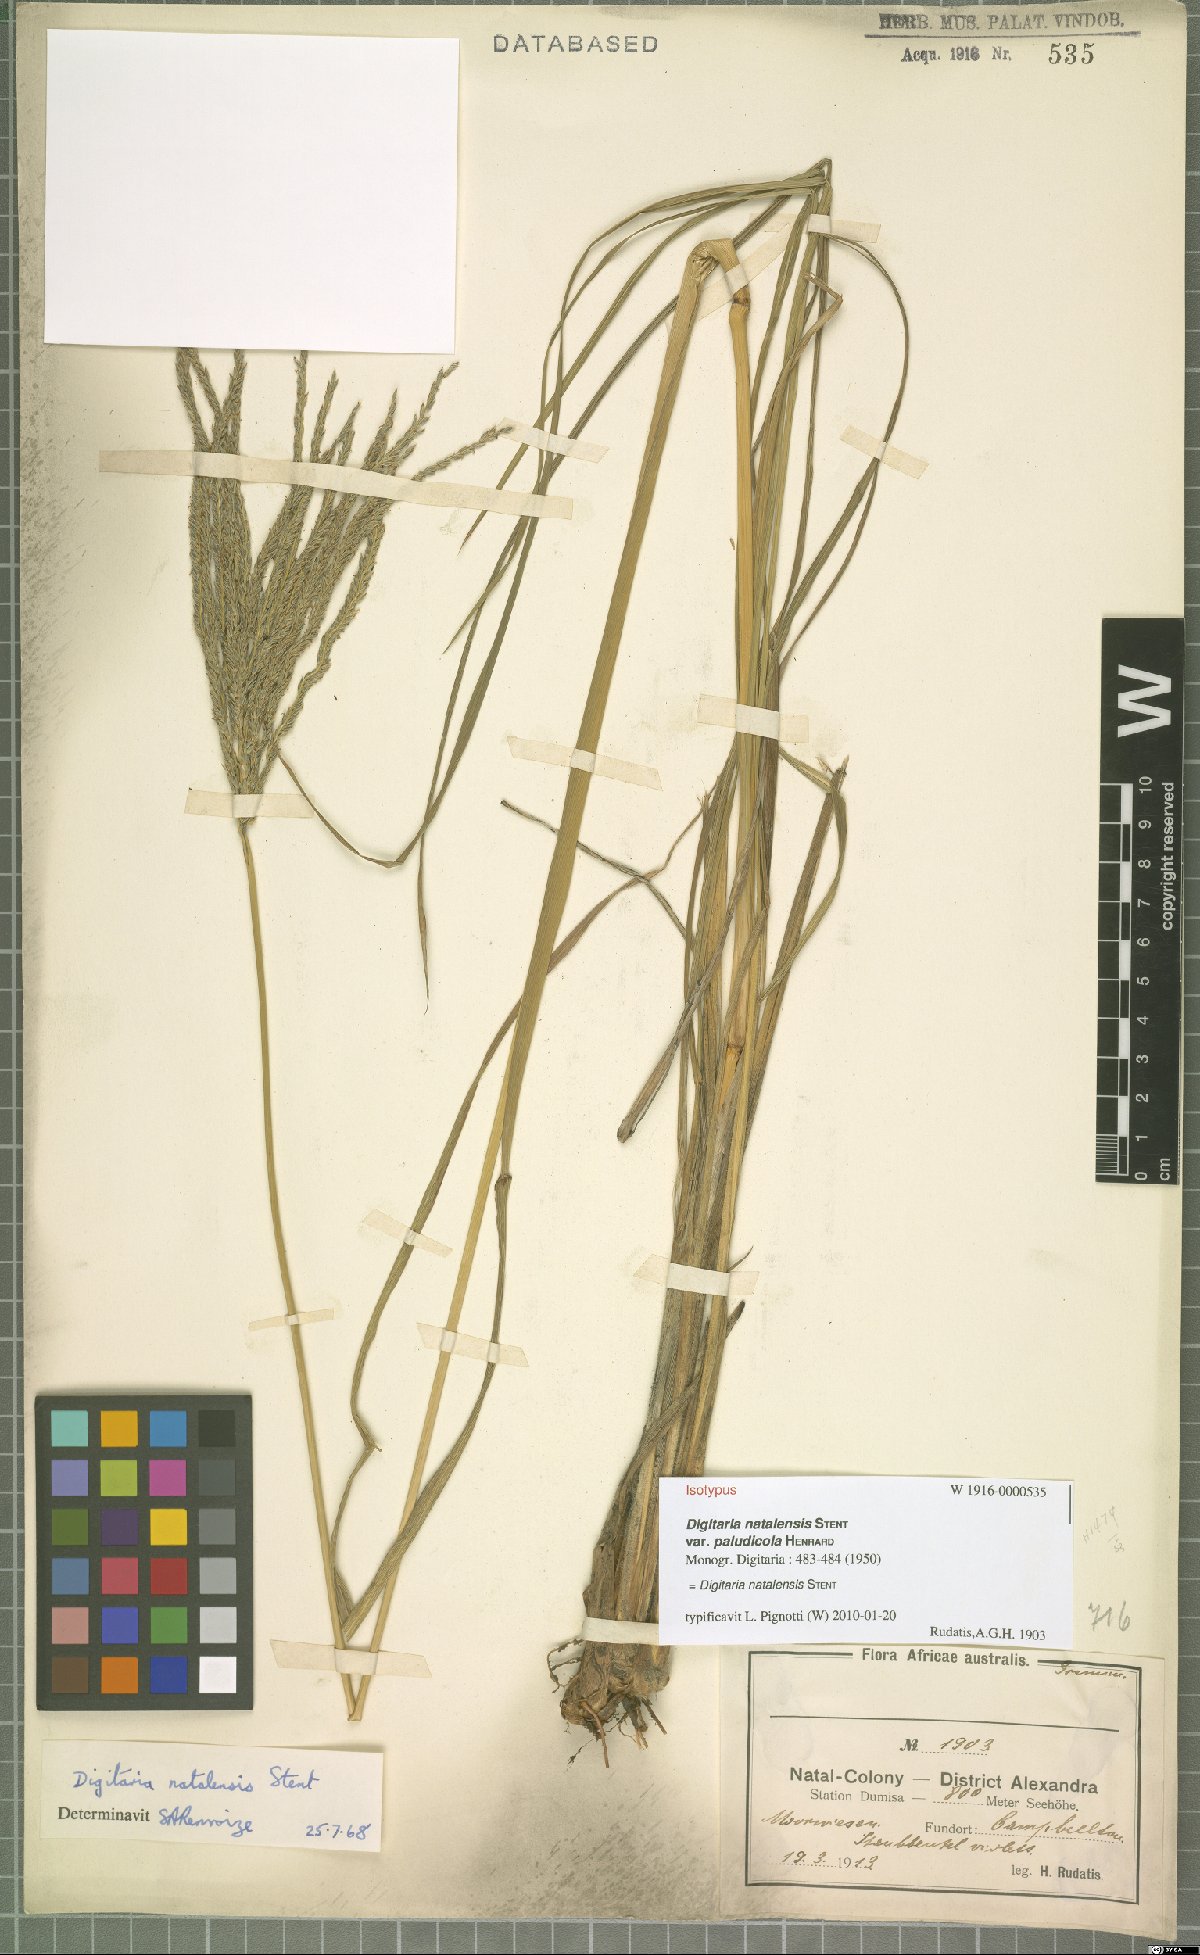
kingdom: Plantae
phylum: Tracheophyta
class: Liliopsida
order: Poales
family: Poaceae
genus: Digitaria
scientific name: Digitaria natalensis
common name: Coast finger grass
